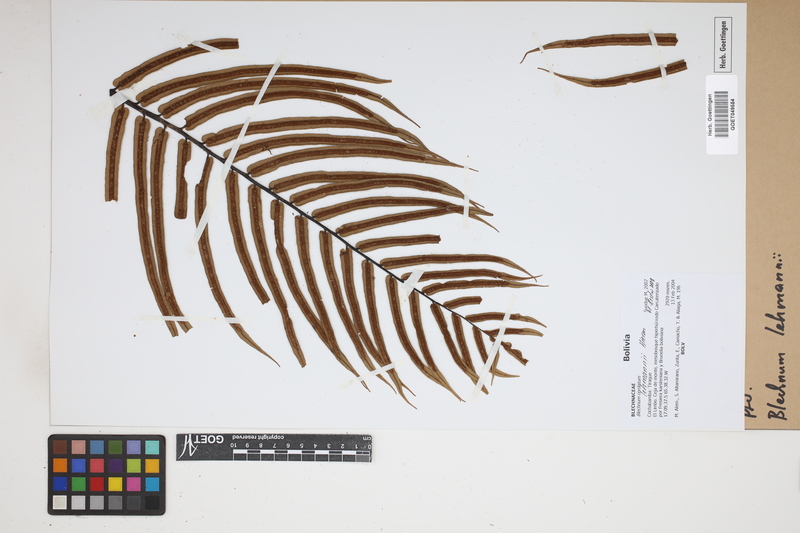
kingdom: Plantae
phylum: Tracheophyta
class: Polypodiopsida
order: Polypodiales
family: Blechnaceae
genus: Austroblechnum
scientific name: Austroblechnum lehmannii
